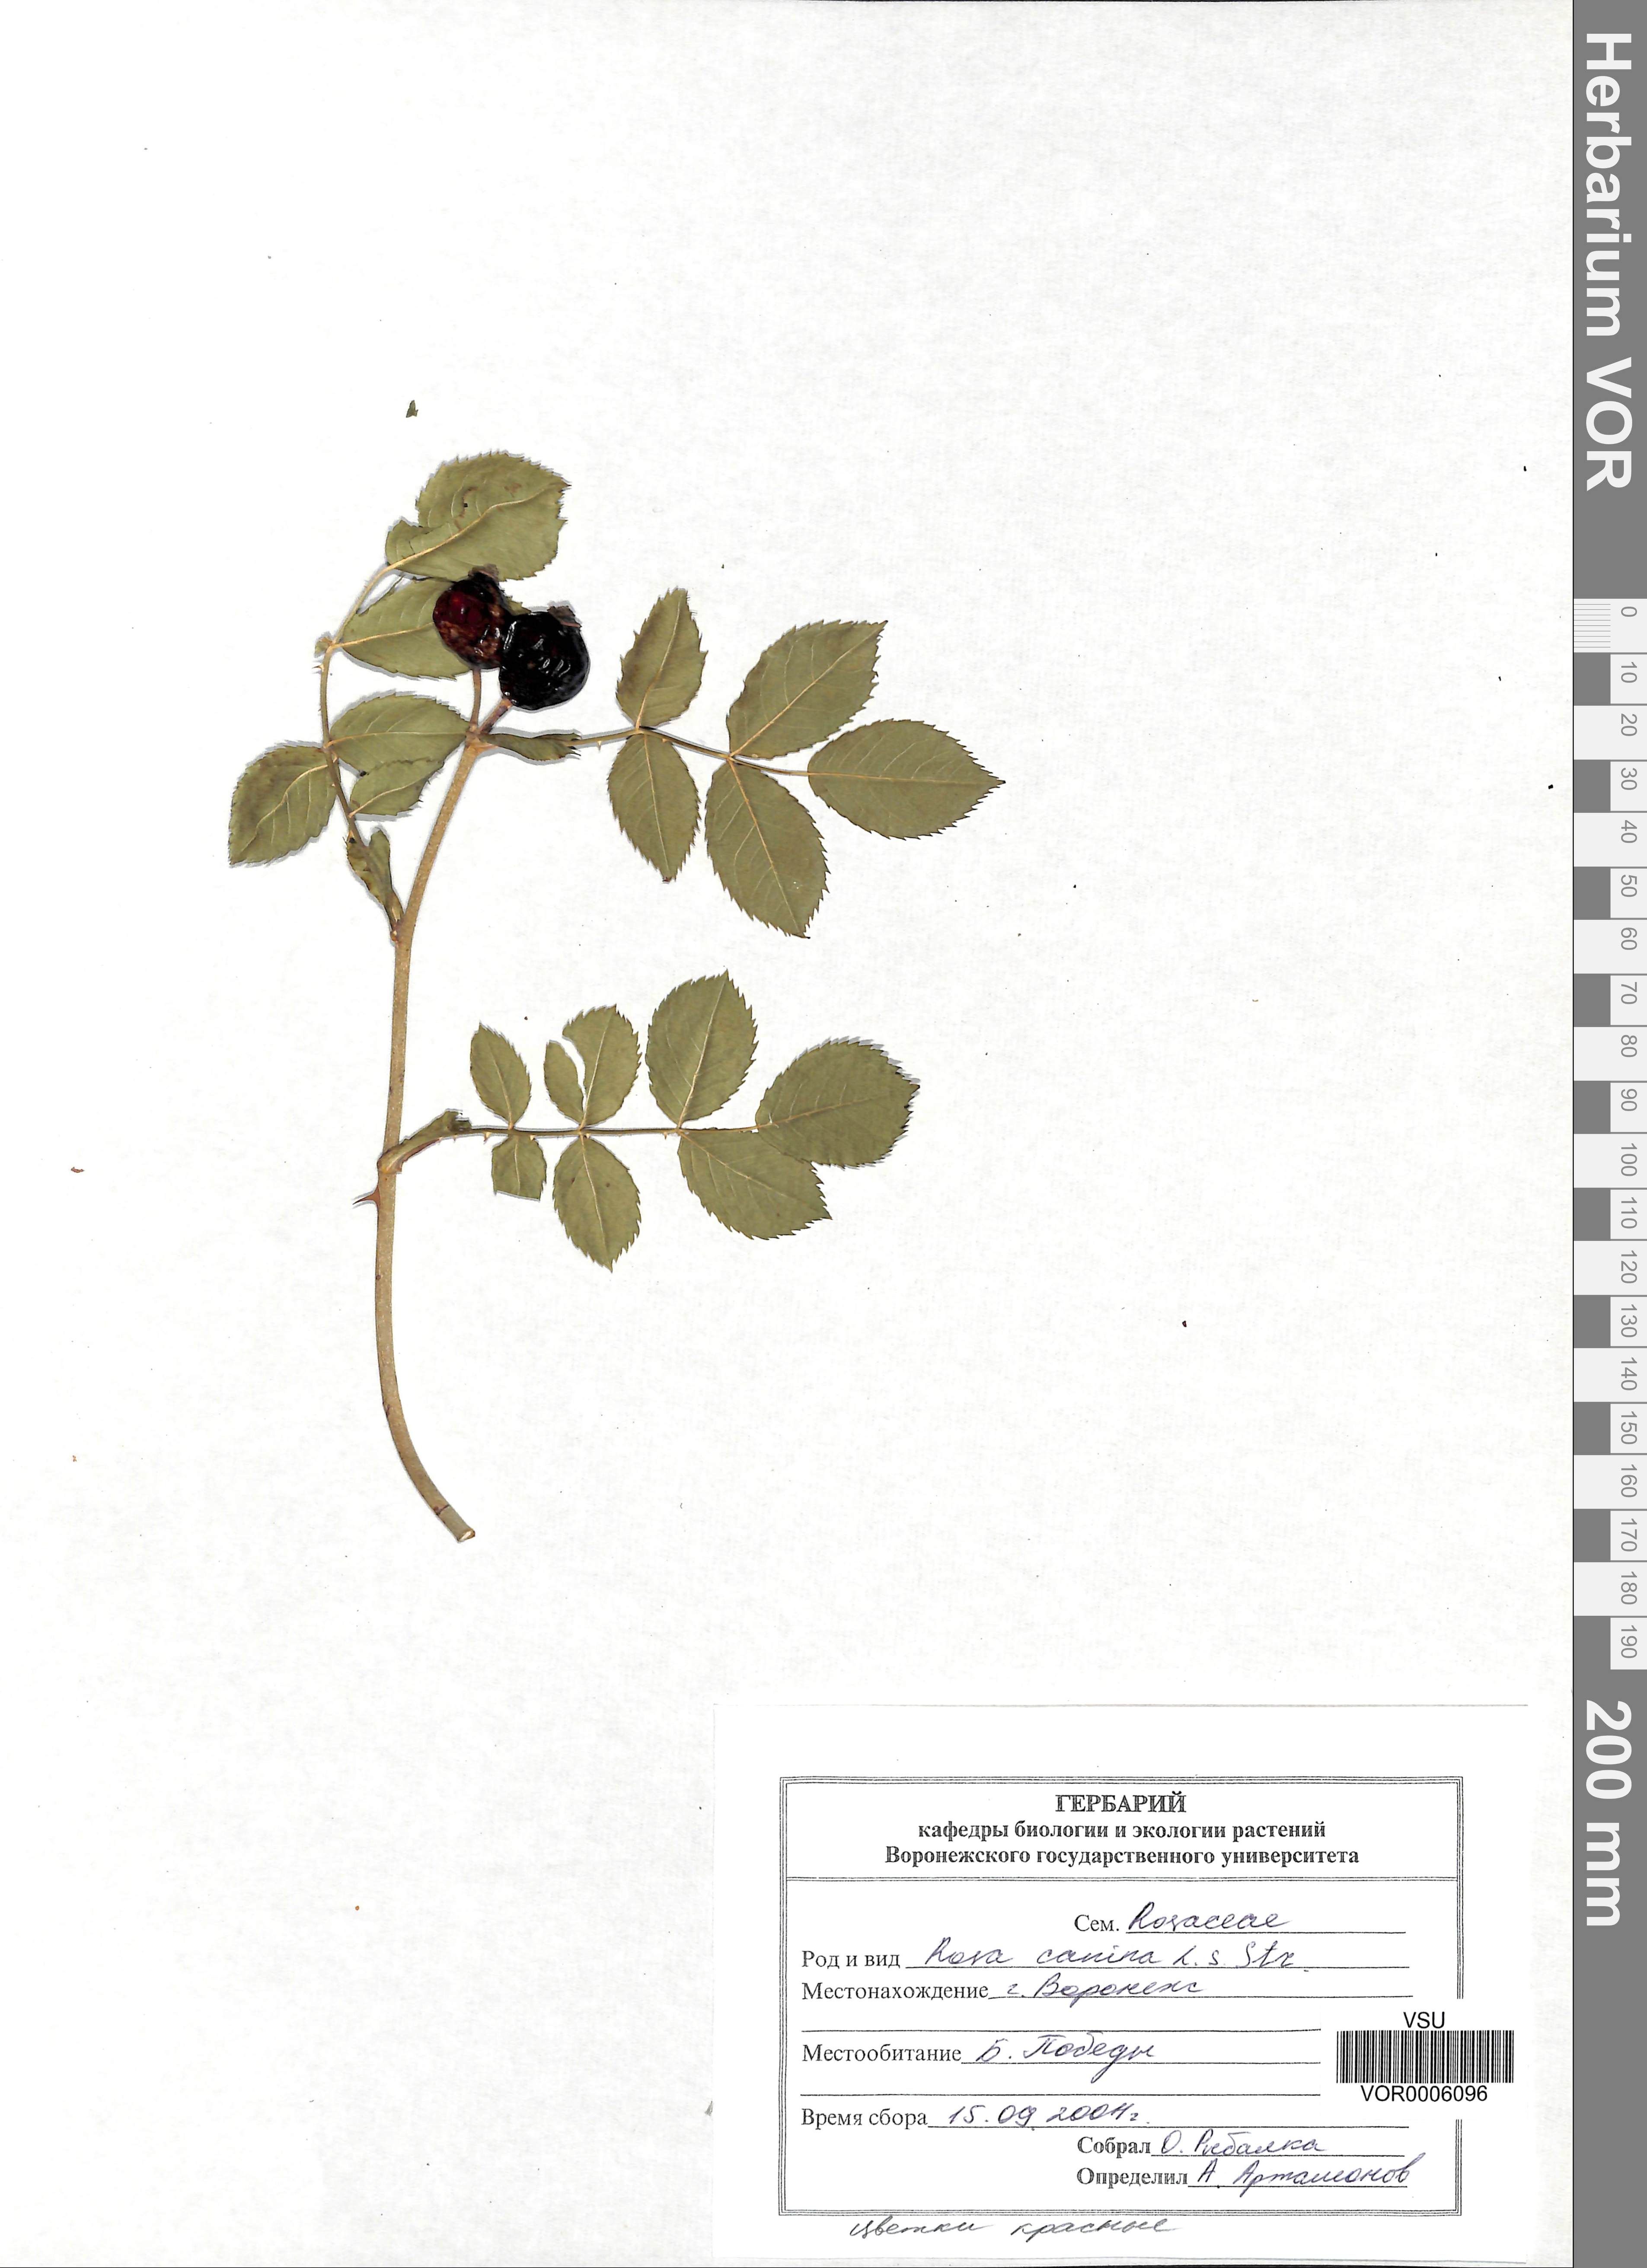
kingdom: Plantae
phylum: Tracheophyta
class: Magnoliopsida
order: Rosales
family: Rosaceae
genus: Rosa
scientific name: Rosa canina
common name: Dog rose
